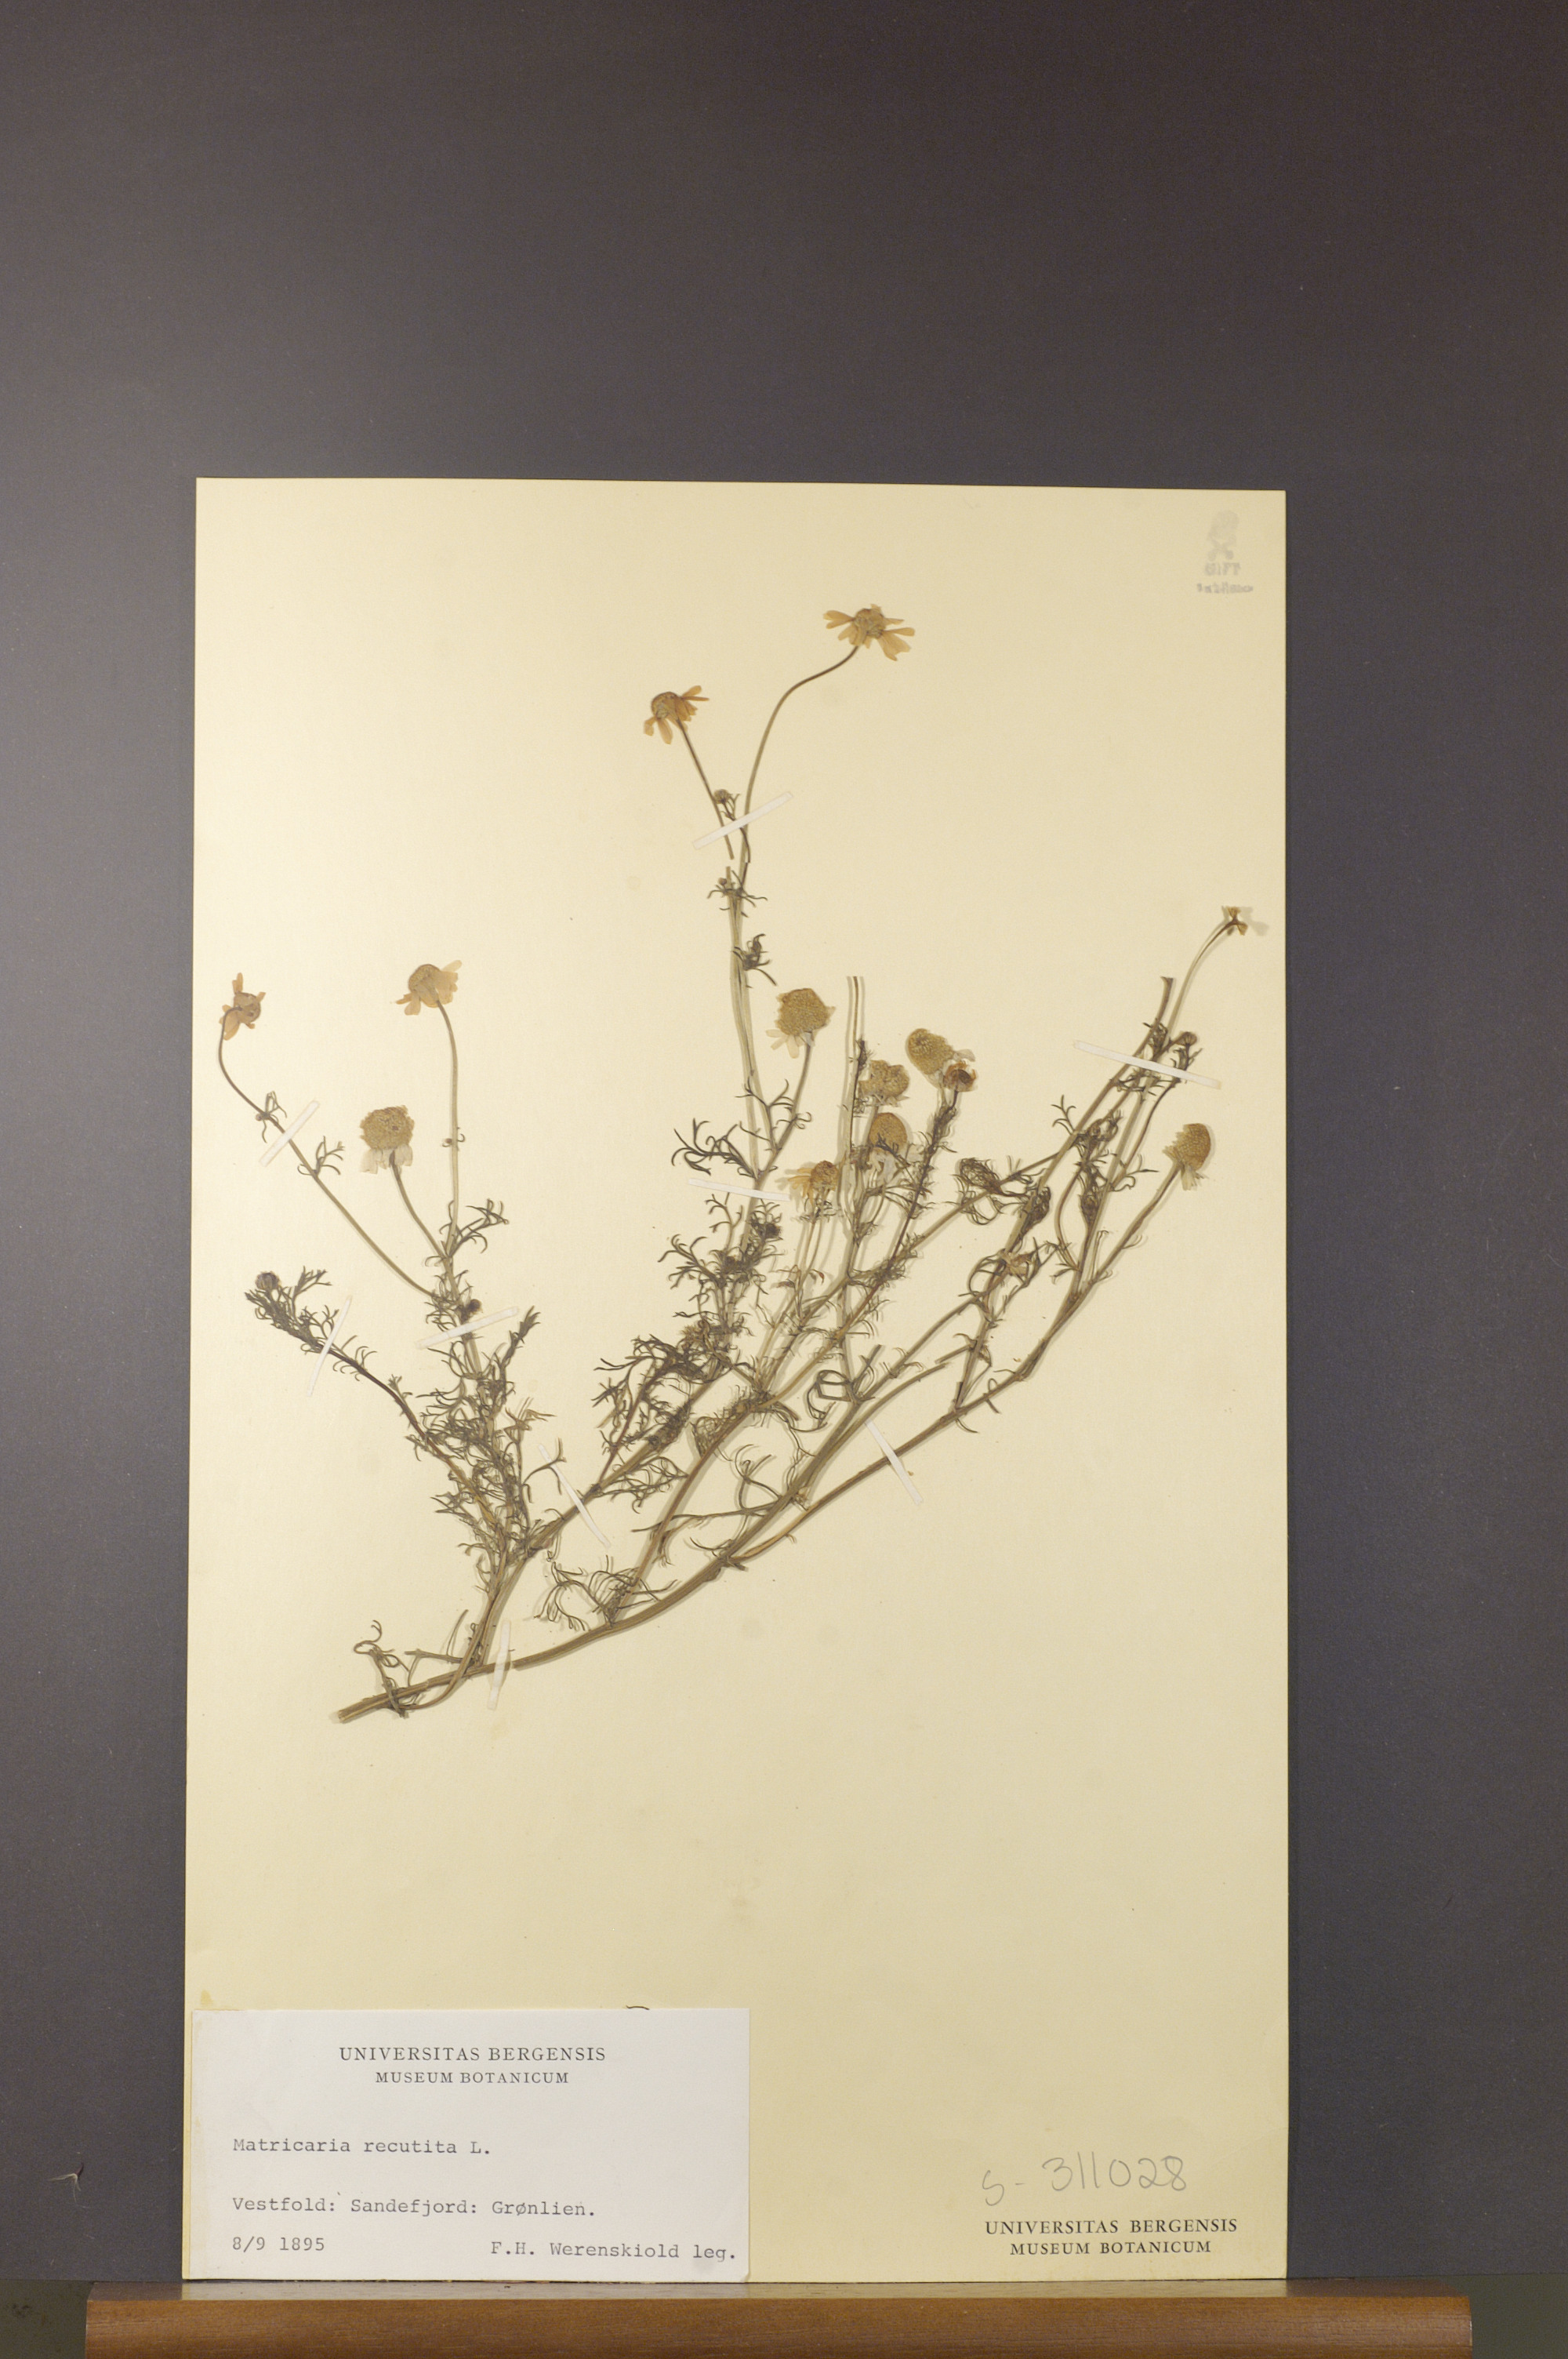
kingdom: Plantae
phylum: Tracheophyta
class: Magnoliopsida
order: Asterales
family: Asteraceae
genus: Matricaria
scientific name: Matricaria chamomilla
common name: Scented mayweed
